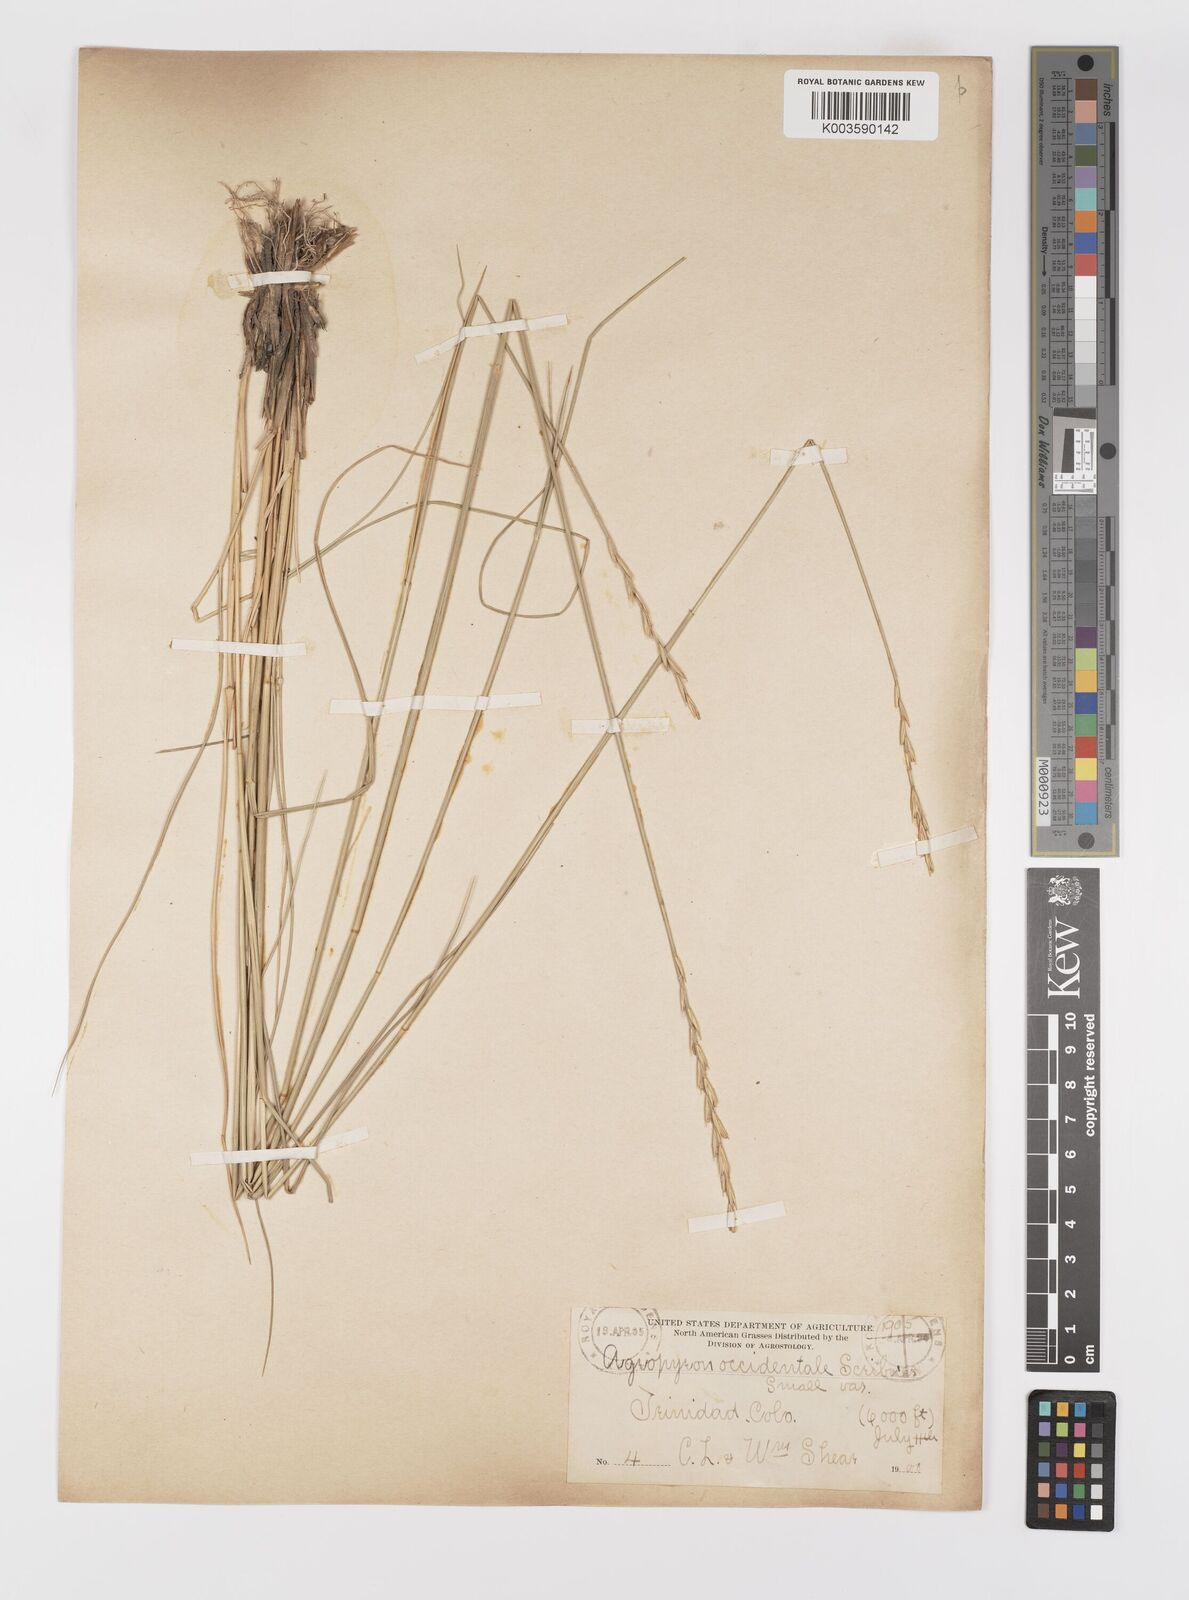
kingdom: Plantae
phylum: Tracheophyta
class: Liliopsida
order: Poales
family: Poaceae
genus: Elymus
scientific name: Elymus smithii
